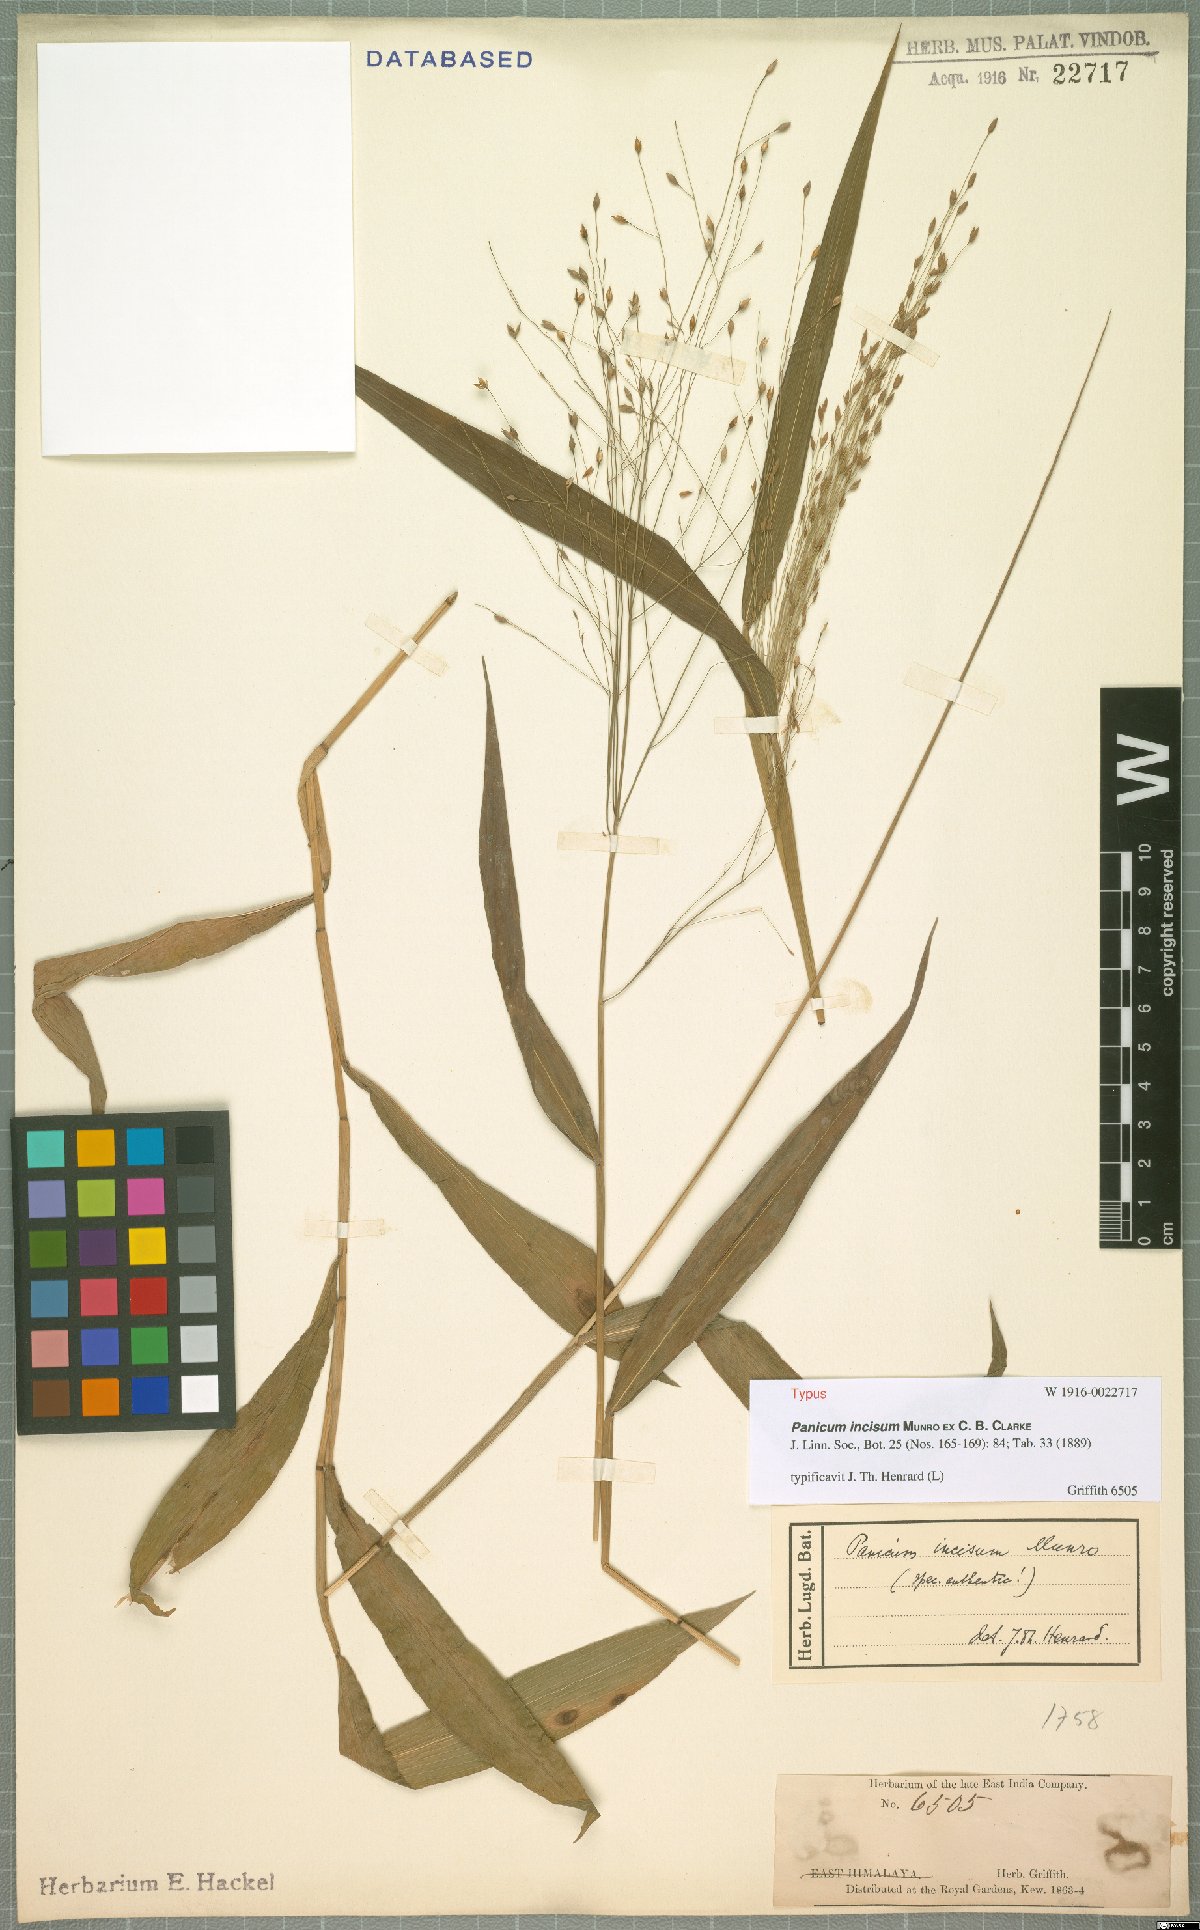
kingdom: Plantae
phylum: Tracheophyta
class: Liliopsida
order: Poales
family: Poaceae
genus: Panicum
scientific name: Panicum incisum
